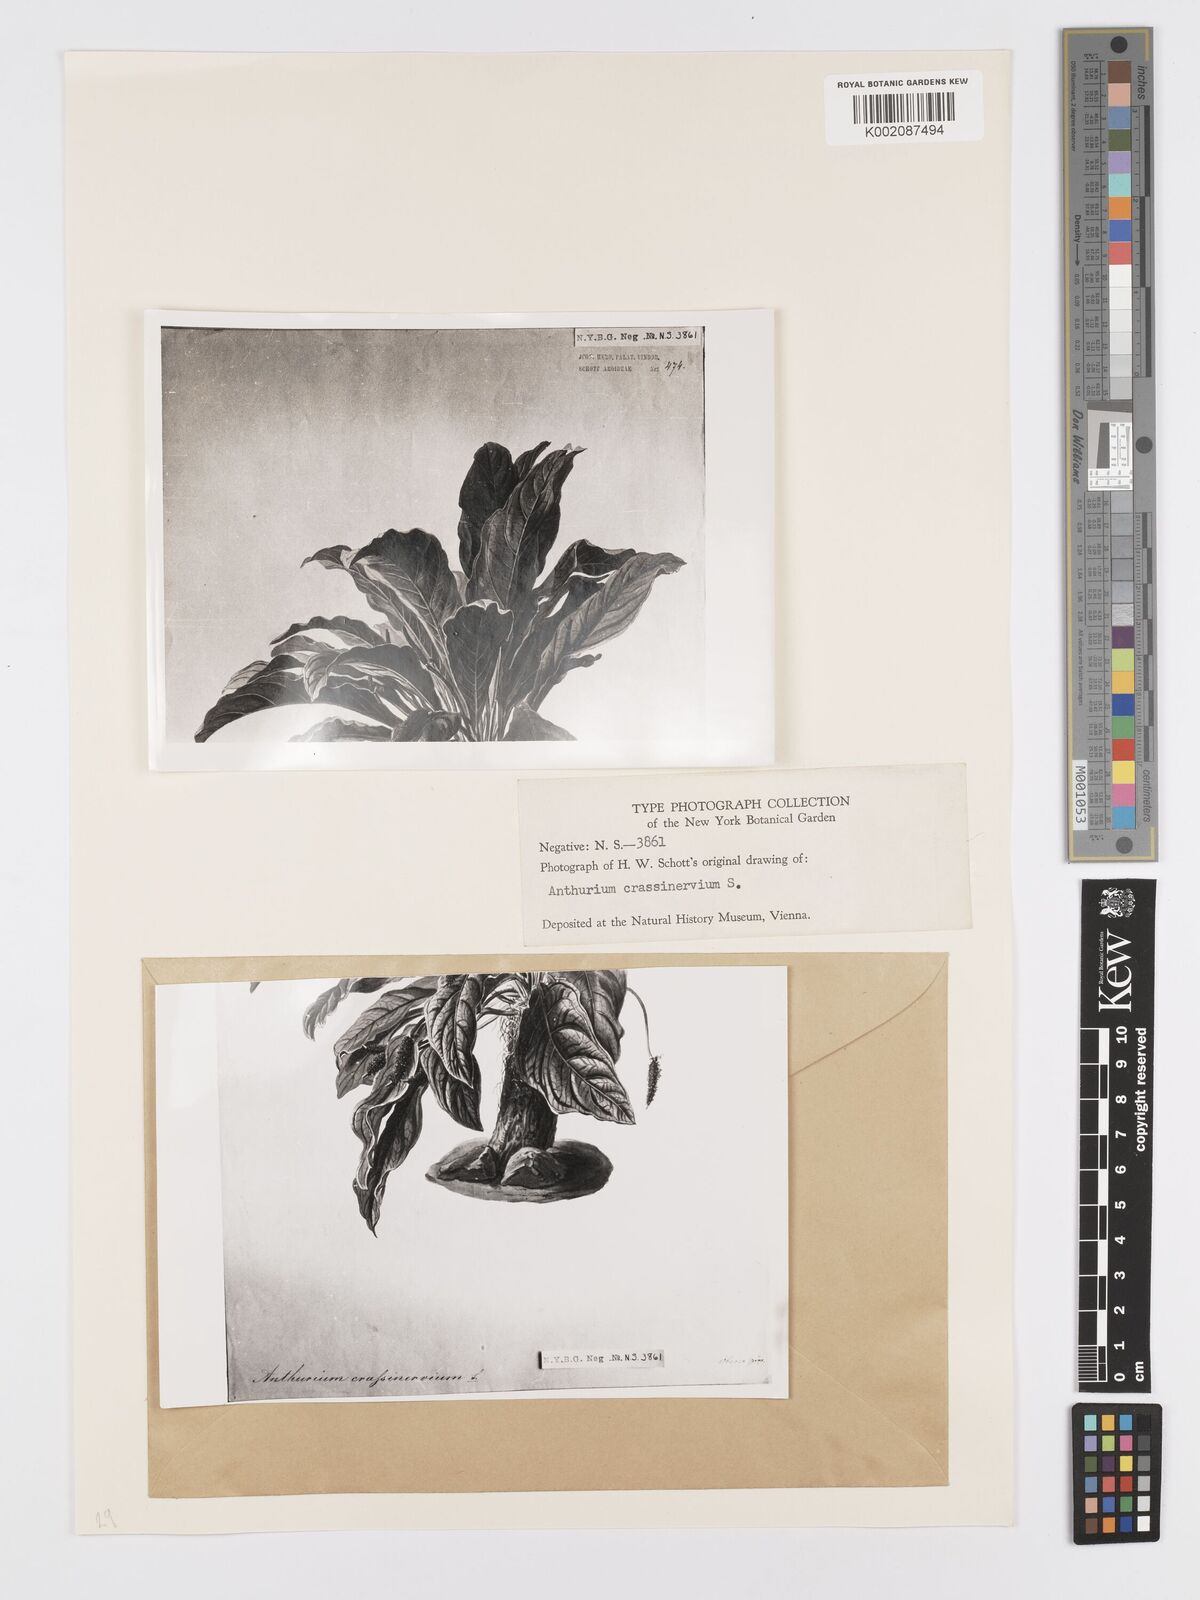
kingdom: Plantae
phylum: Tracheophyta
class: Liliopsida
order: Alismatales
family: Araceae
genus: Anthurium
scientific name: Anthurium crassinervium
